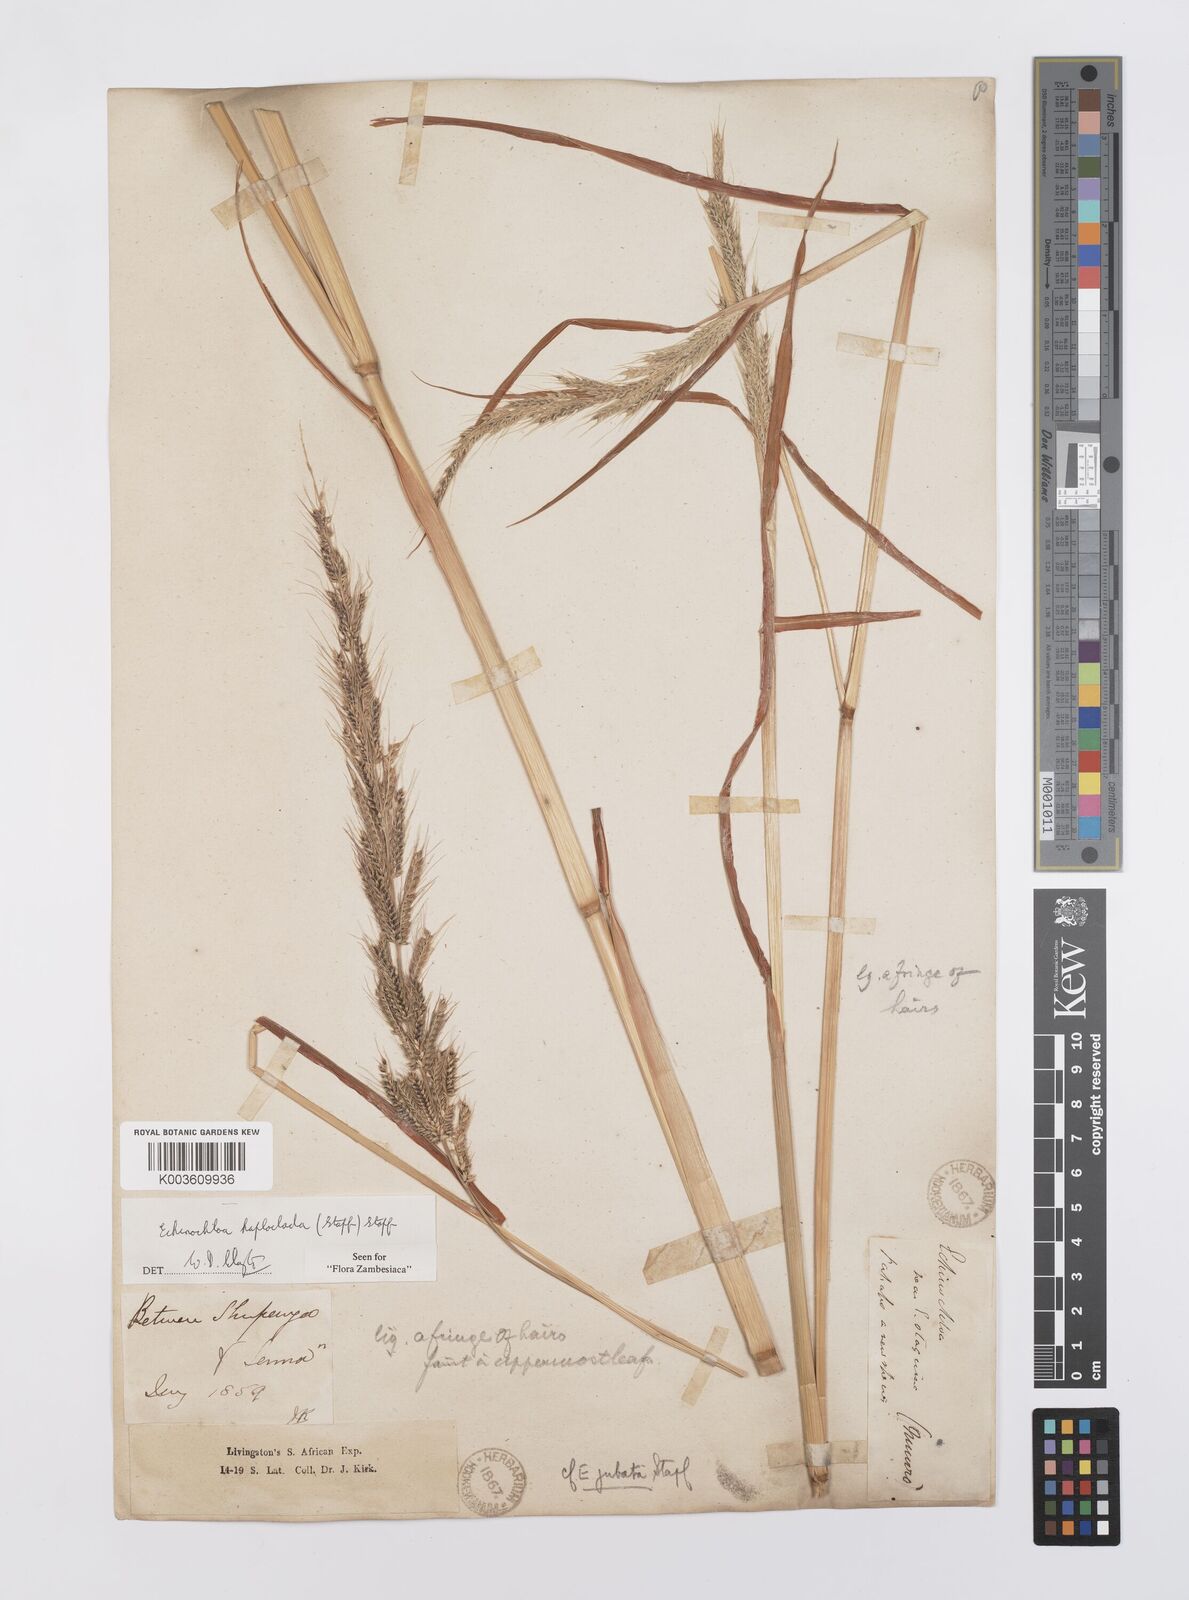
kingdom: Plantae
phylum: Tracheophyta
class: Liliopsida
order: Poales
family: Poaceae
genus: Echinochloa
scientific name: Echinochloa haploclada
